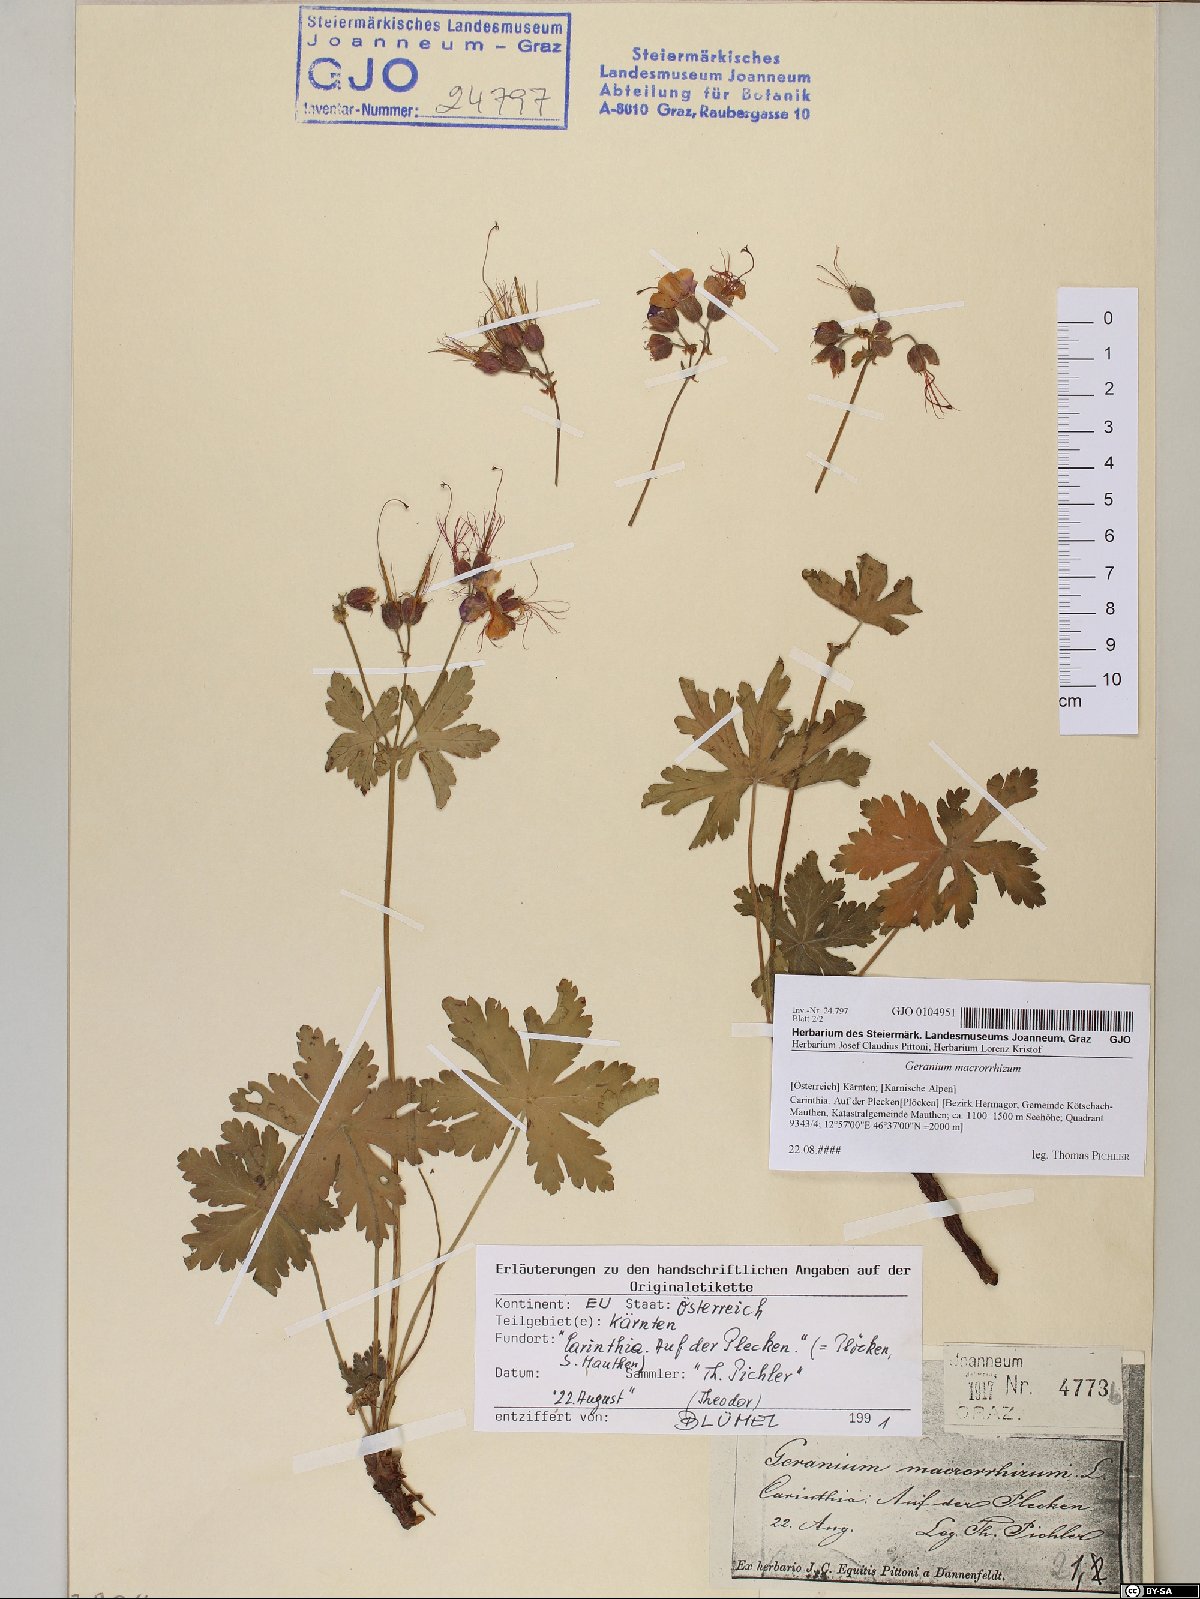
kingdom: Plantae
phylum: Tracheophyta
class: Magnoliopsida
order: Geraniales
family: Geraniaceae
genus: Geranium
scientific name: Geranium macrorrhizum
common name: Rock crane's-bill
